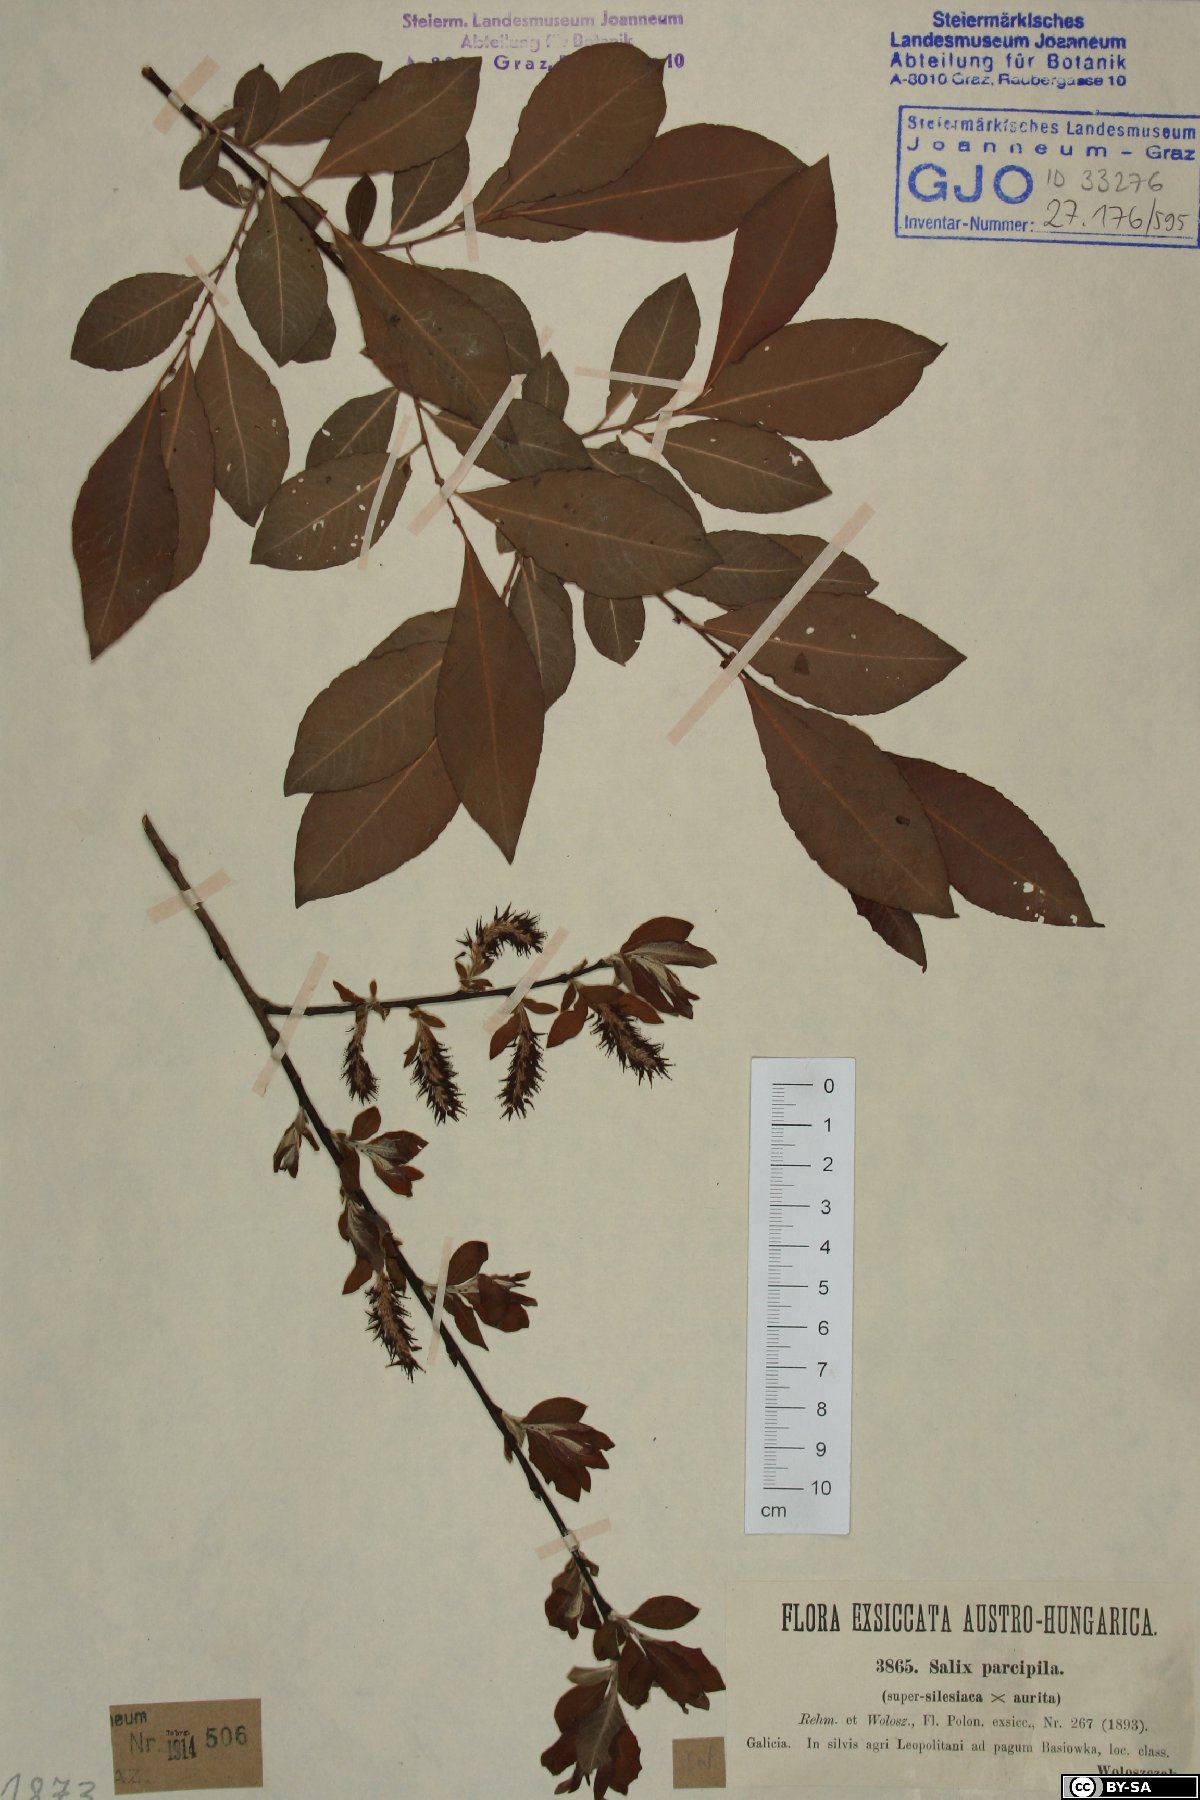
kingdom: Plantae
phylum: Tracheophyta
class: Magnoliopsida
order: Malpighiales
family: Salicaceae
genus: Salix
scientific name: Salix silesiaca
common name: Silesian willow
